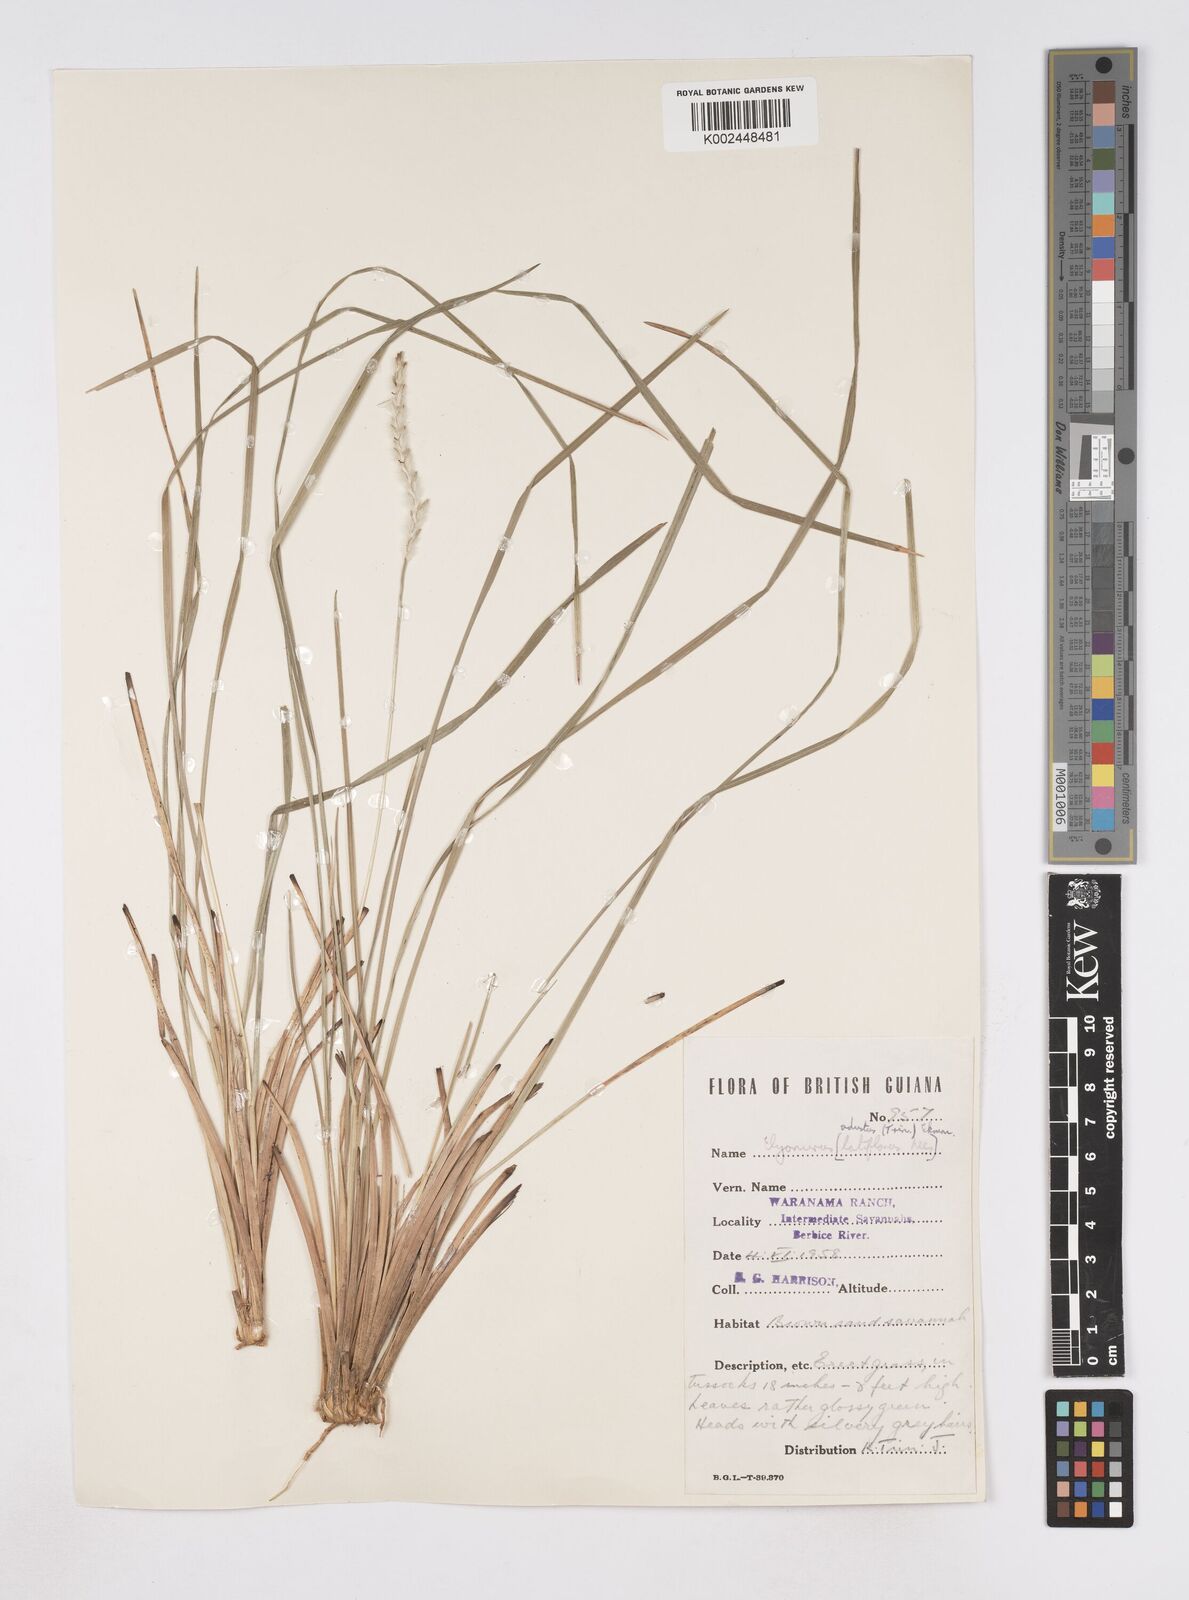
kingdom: Plantae
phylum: Tracheophyta
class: Liliopsida
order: Poales
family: Poaceae
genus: Elionurus
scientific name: Elionurus planifolius
